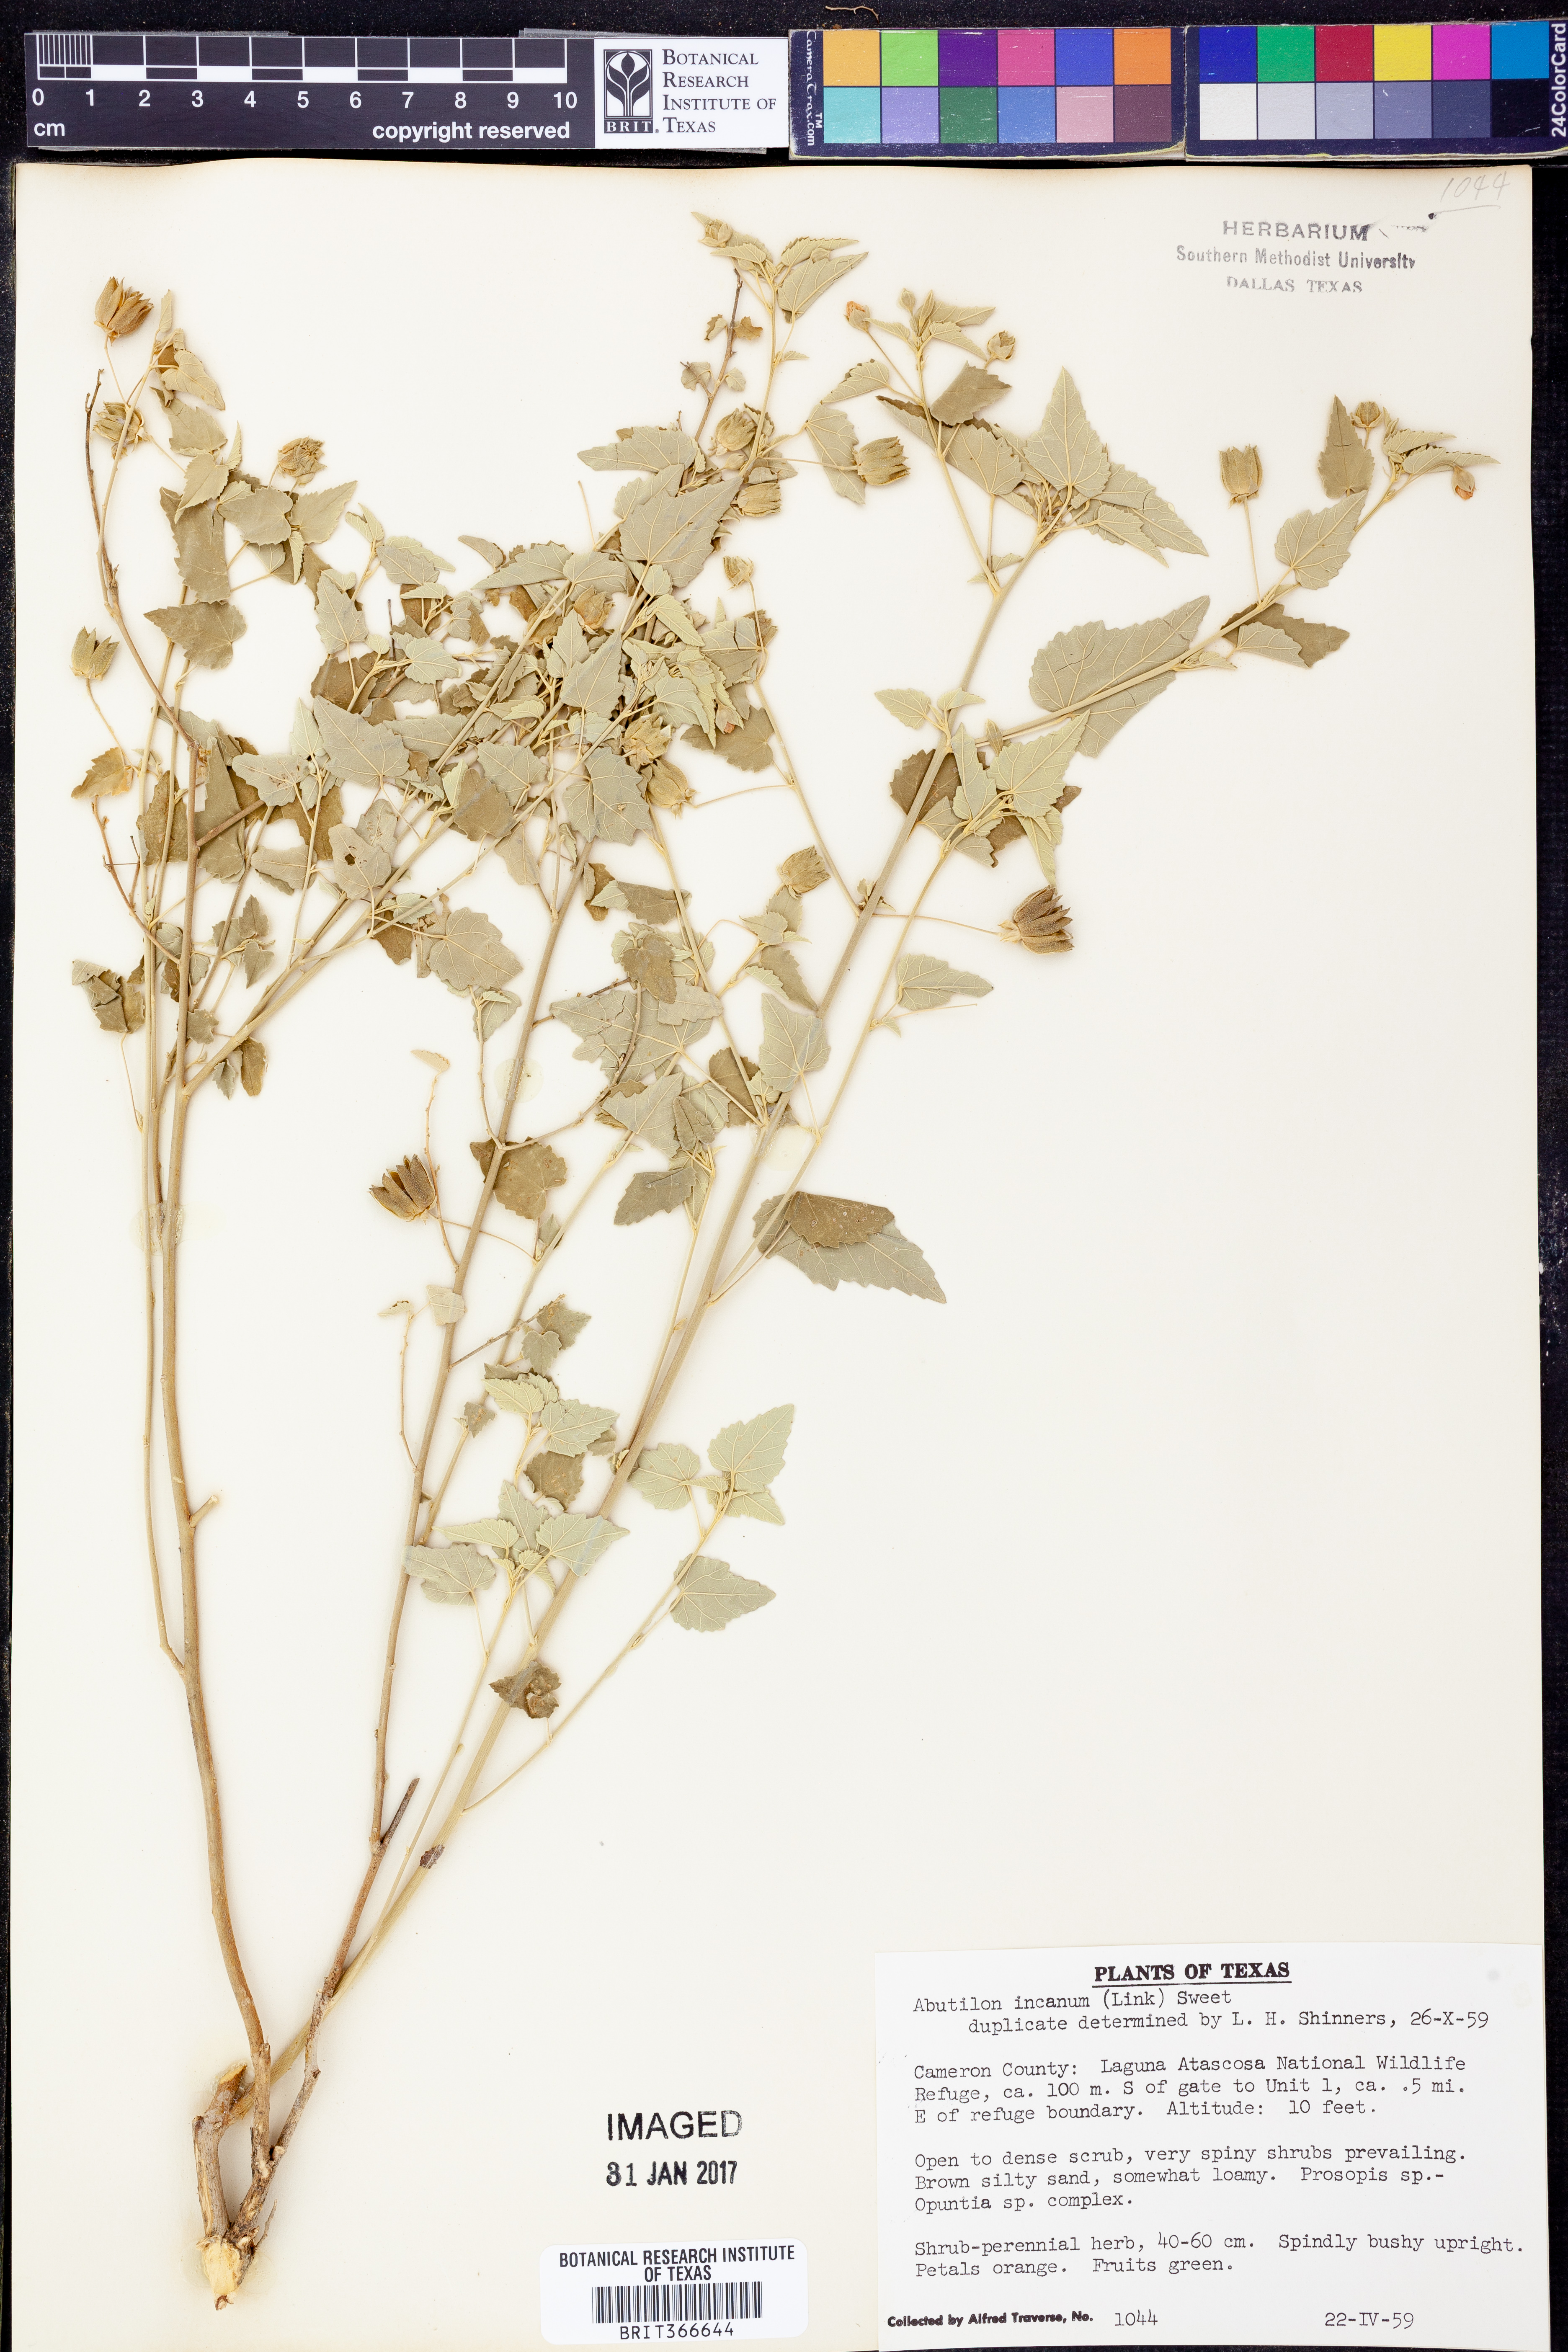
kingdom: Plantae
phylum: Tracheophyta
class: Magnoliopsida
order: Malvales
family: Malvaceae
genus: Abutilon
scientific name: Abutilon incanum
